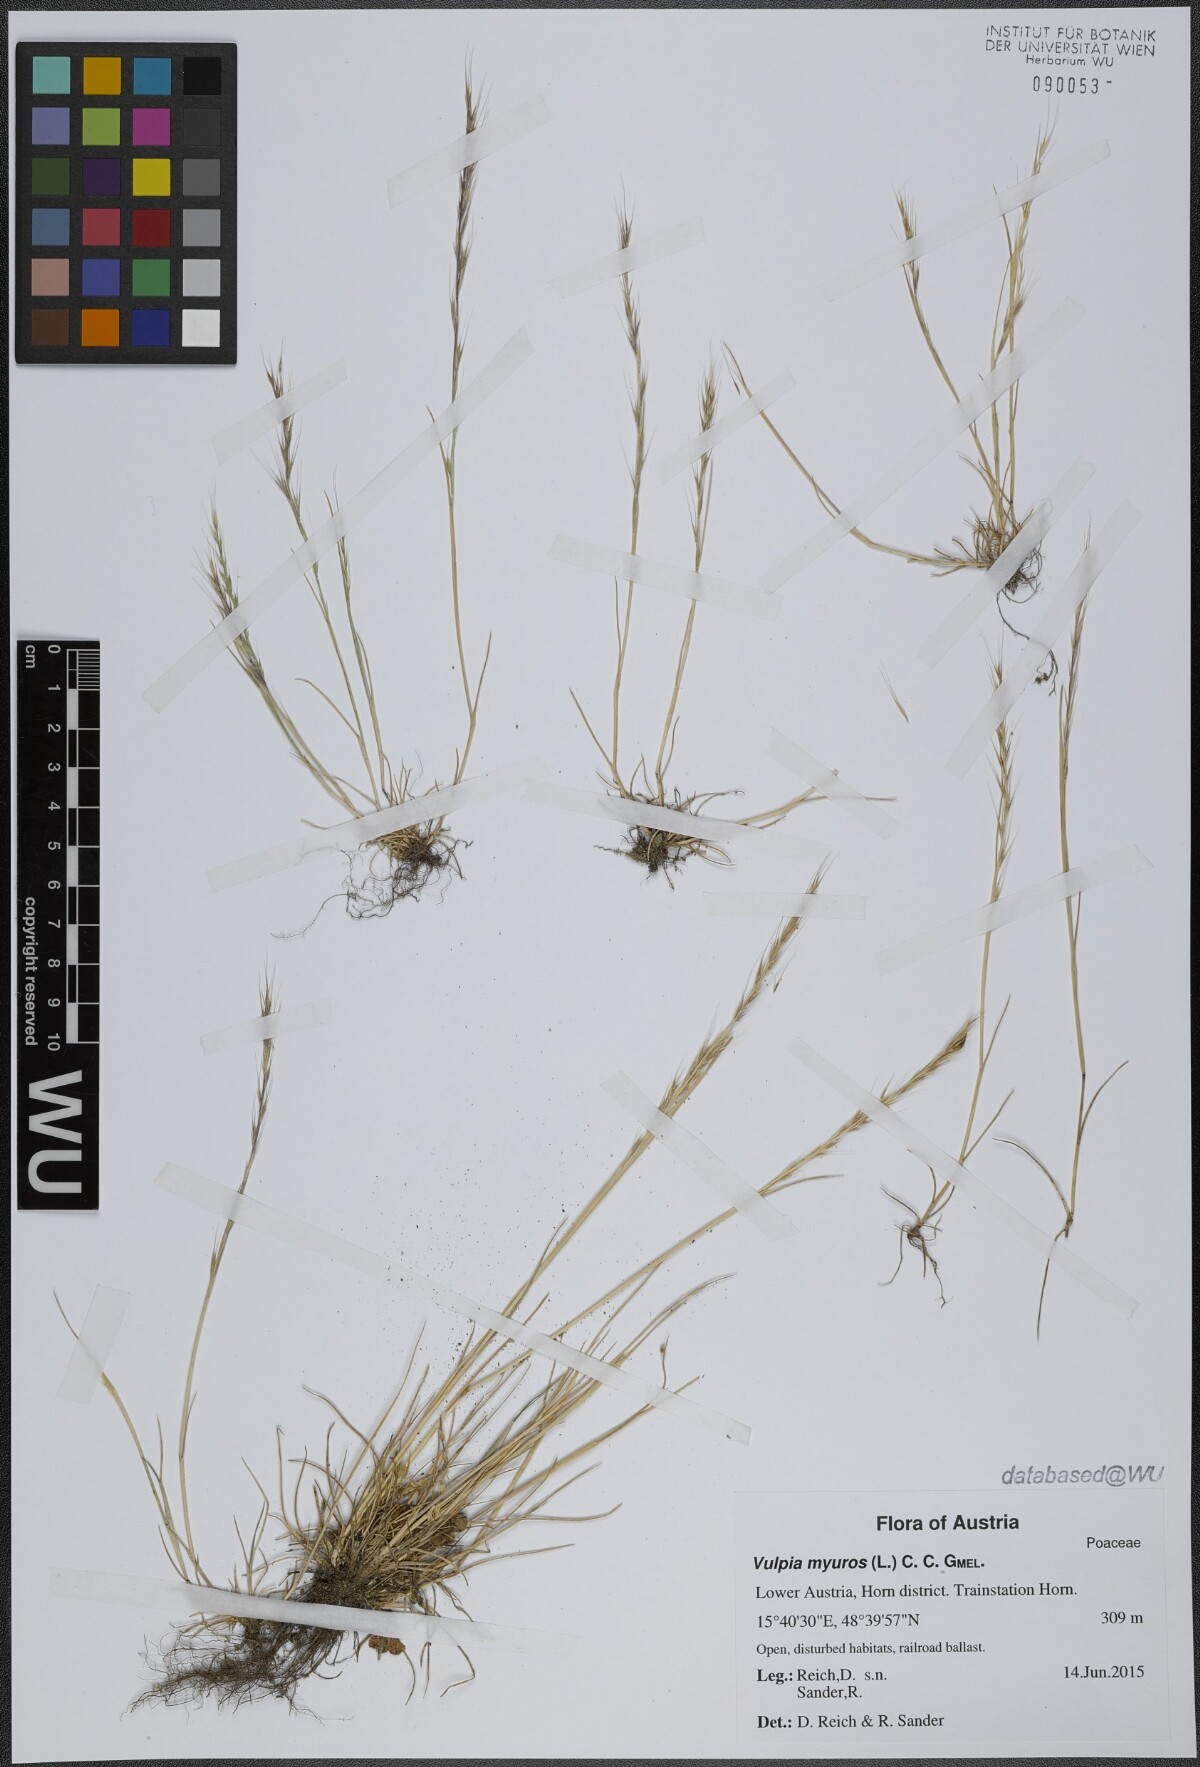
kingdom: Plantae
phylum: Tracheophyta
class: Liliopsida
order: Poales
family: Poaceae
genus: Festuca
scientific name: Festuca myuros
